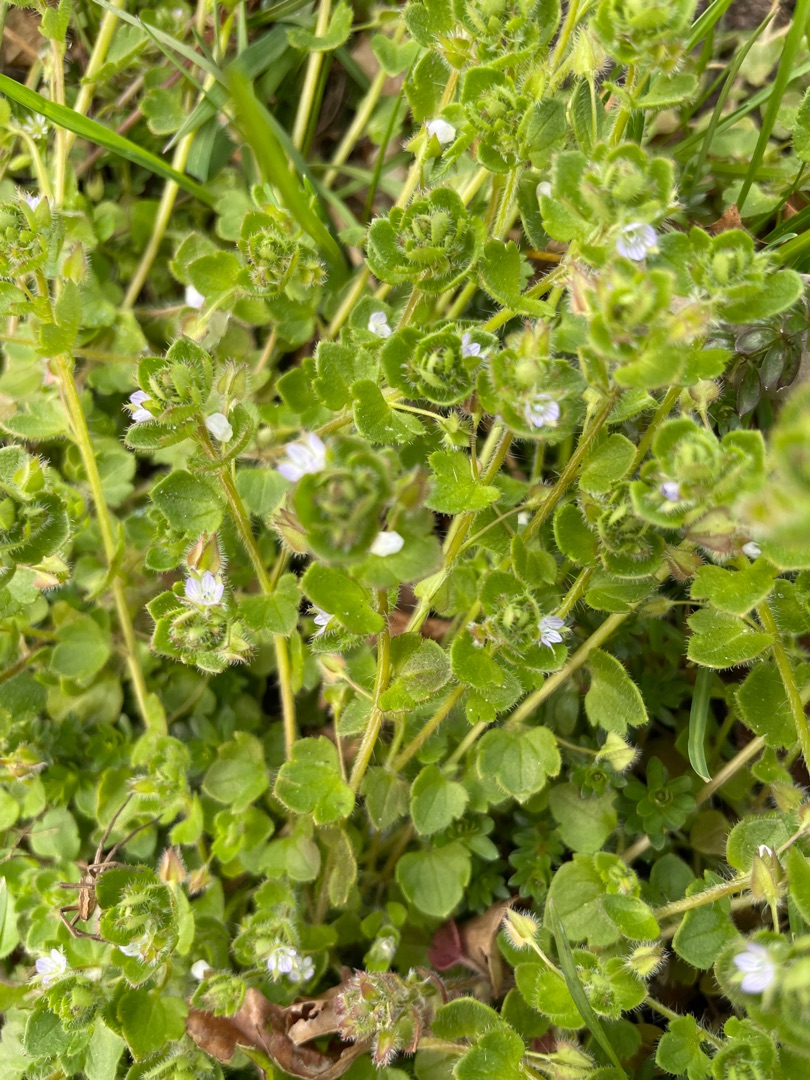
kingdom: Plantae
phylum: Tracheophyta
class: Magnoliopsida
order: Lamiales
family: Plantaginaceae
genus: Veronica
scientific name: Veronica hederifolia
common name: Vedbend-ærenpris
